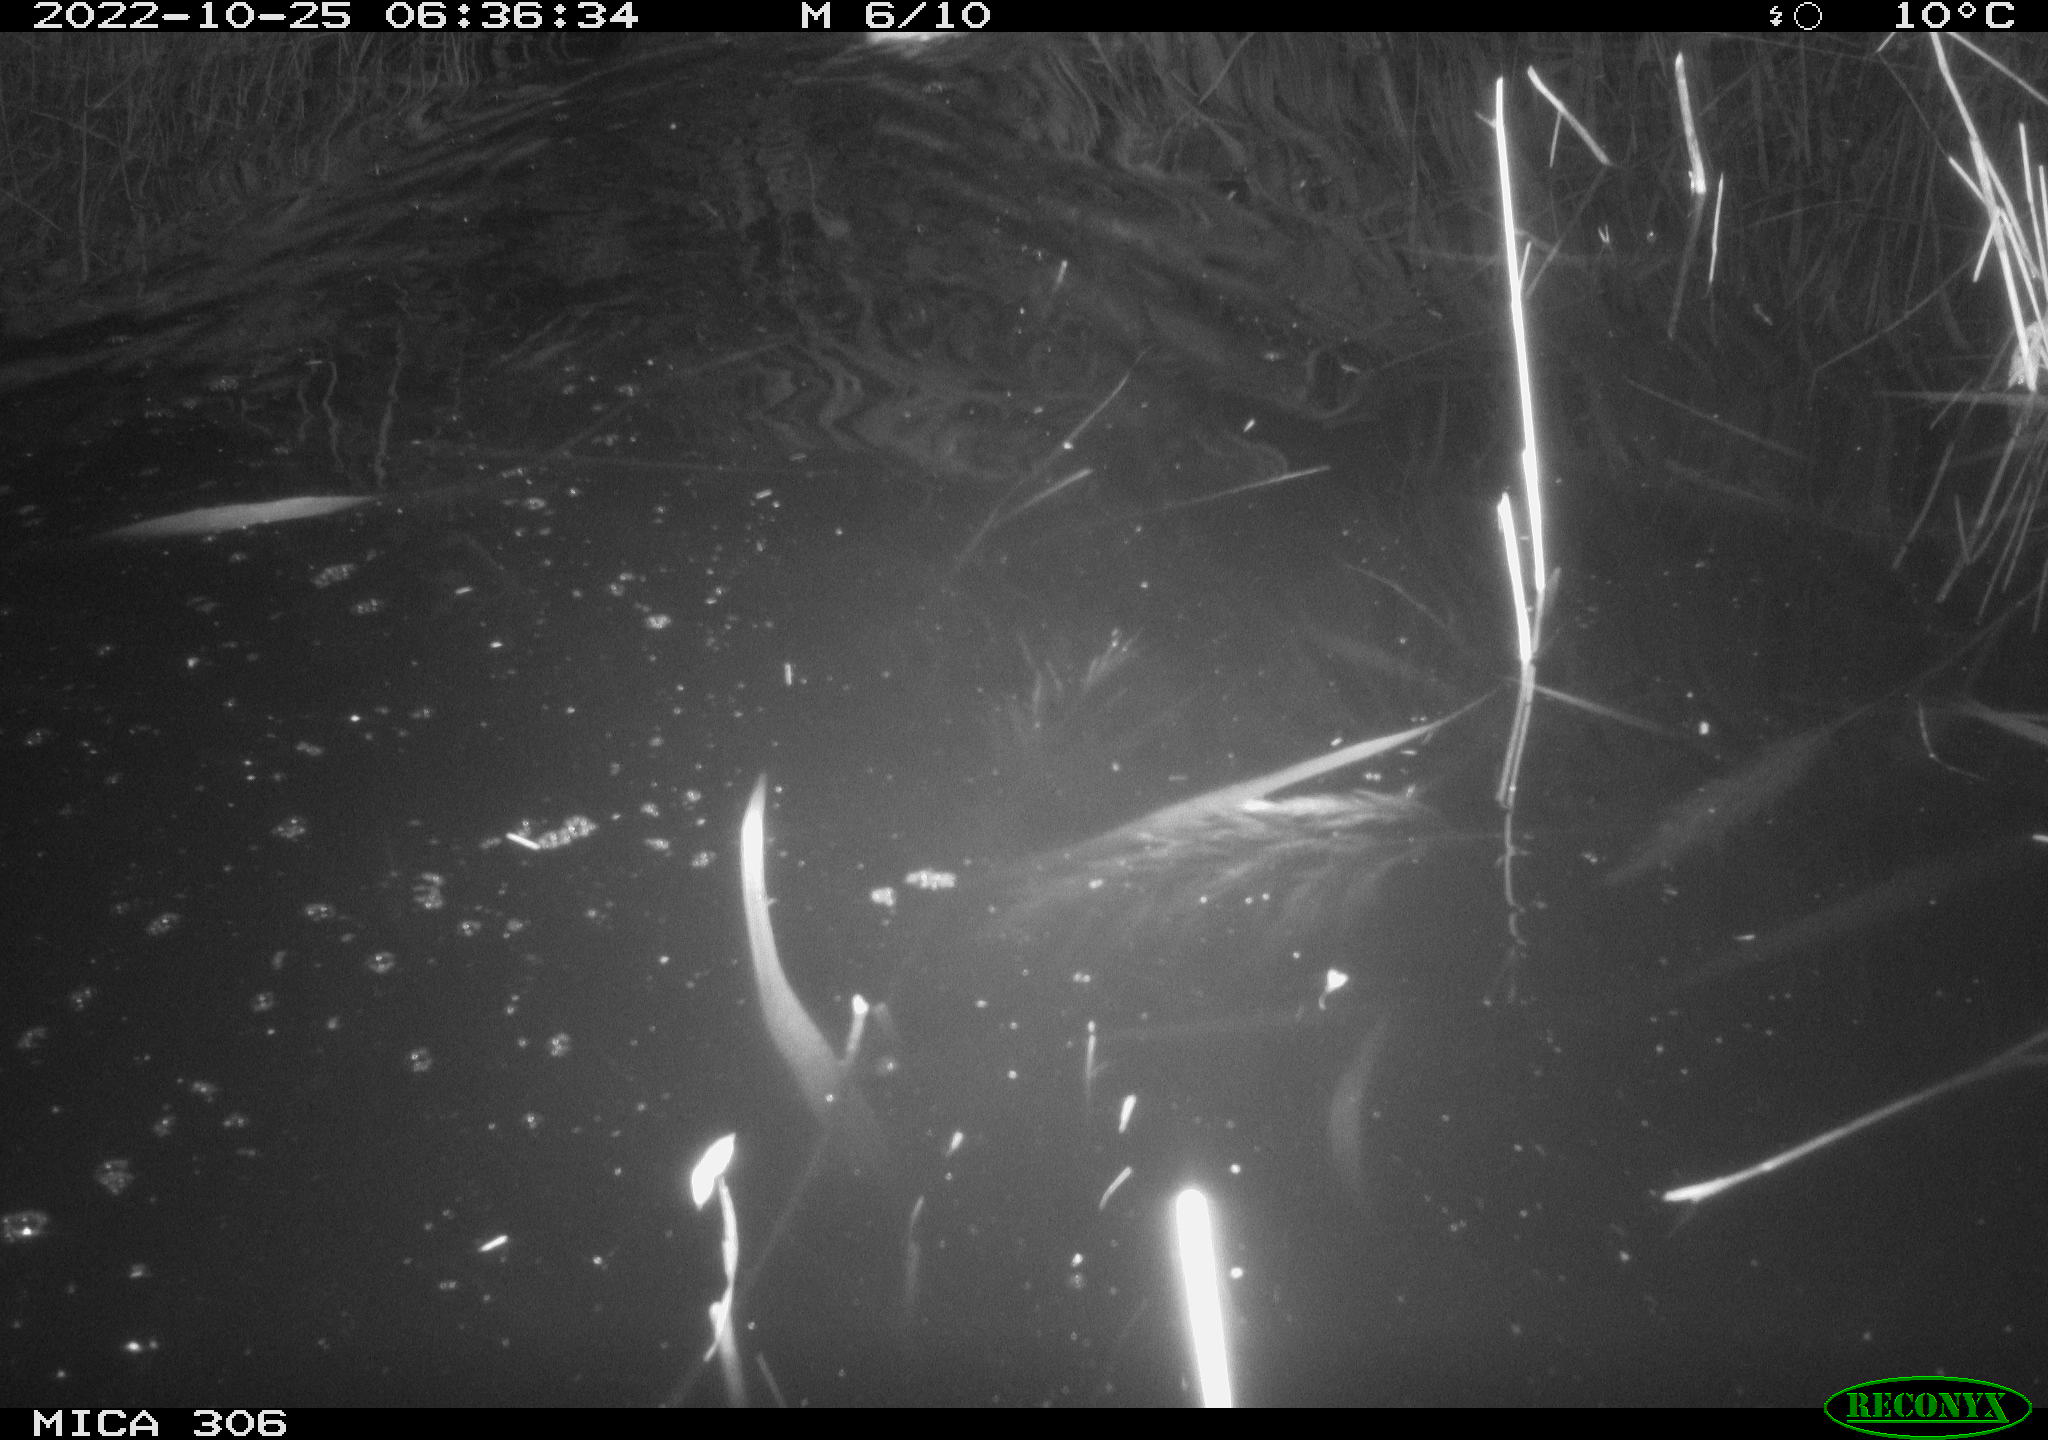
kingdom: Animalia
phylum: Chordata
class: Mammalia
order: Rodentia
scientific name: Rodentia
